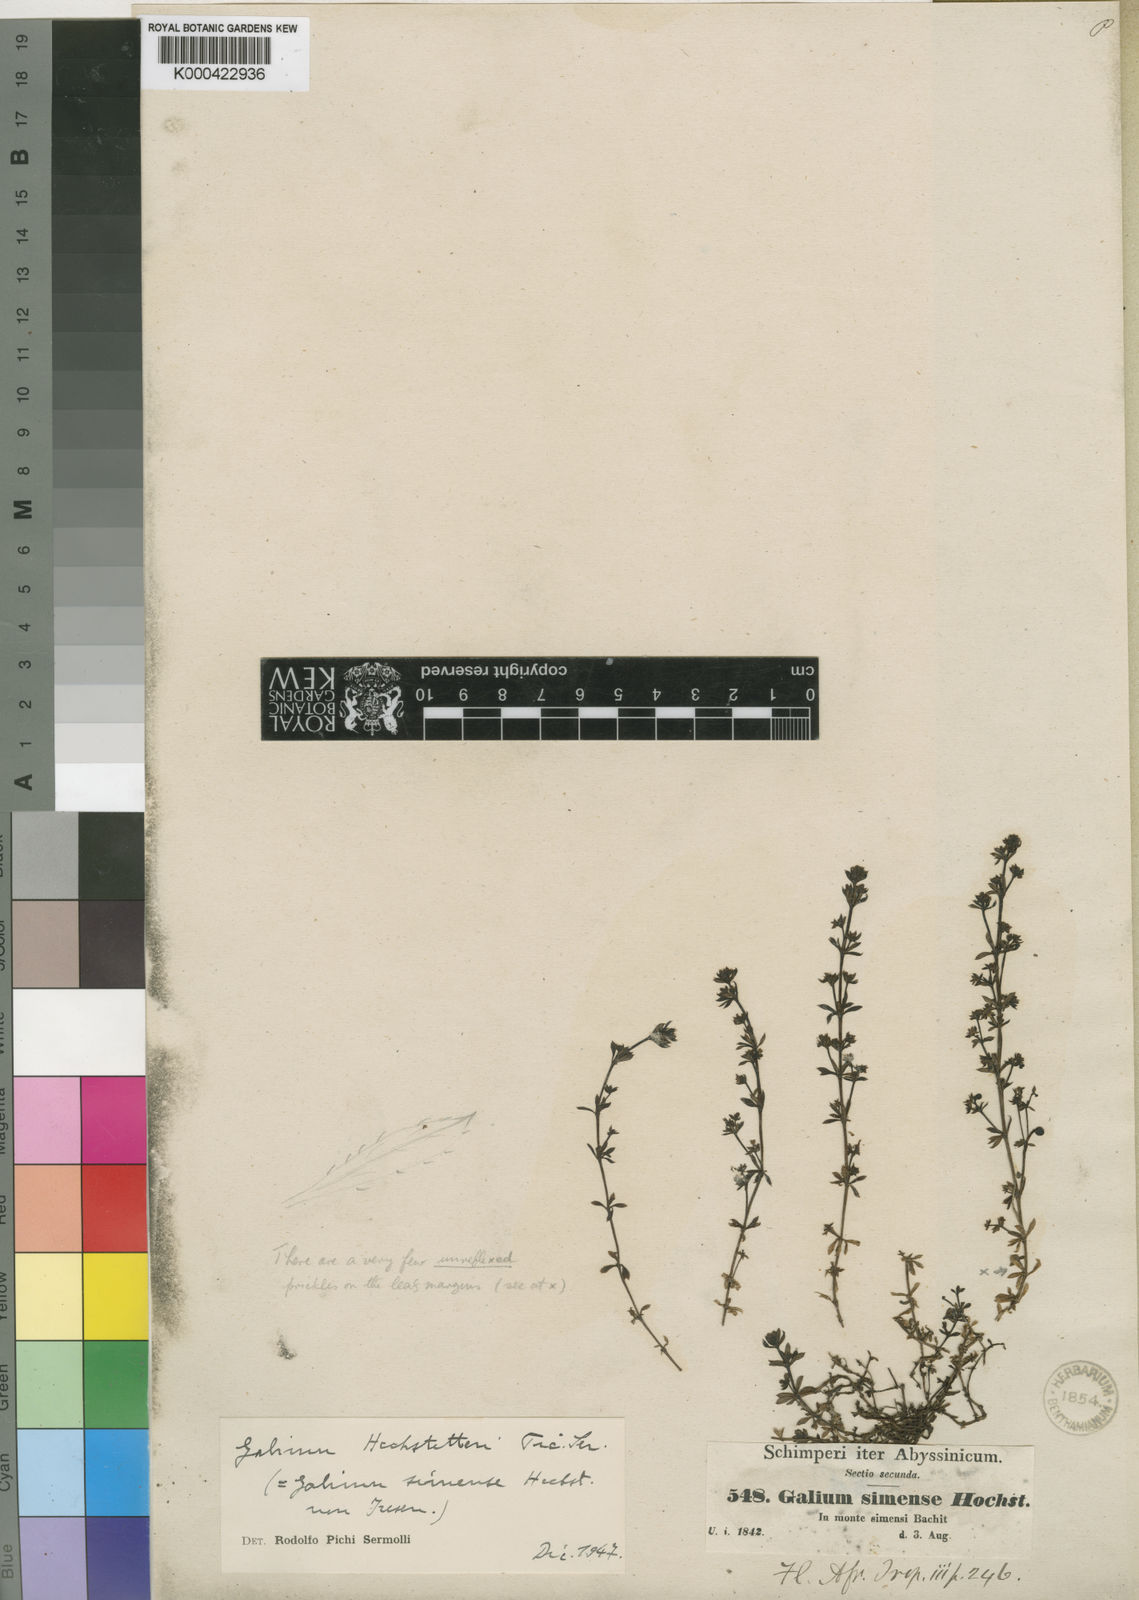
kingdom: Plantae
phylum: Tracheophyta
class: Magnoliopsida
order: Gentianales
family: Rubiaceae
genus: Galium
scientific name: Galium acrophyum
